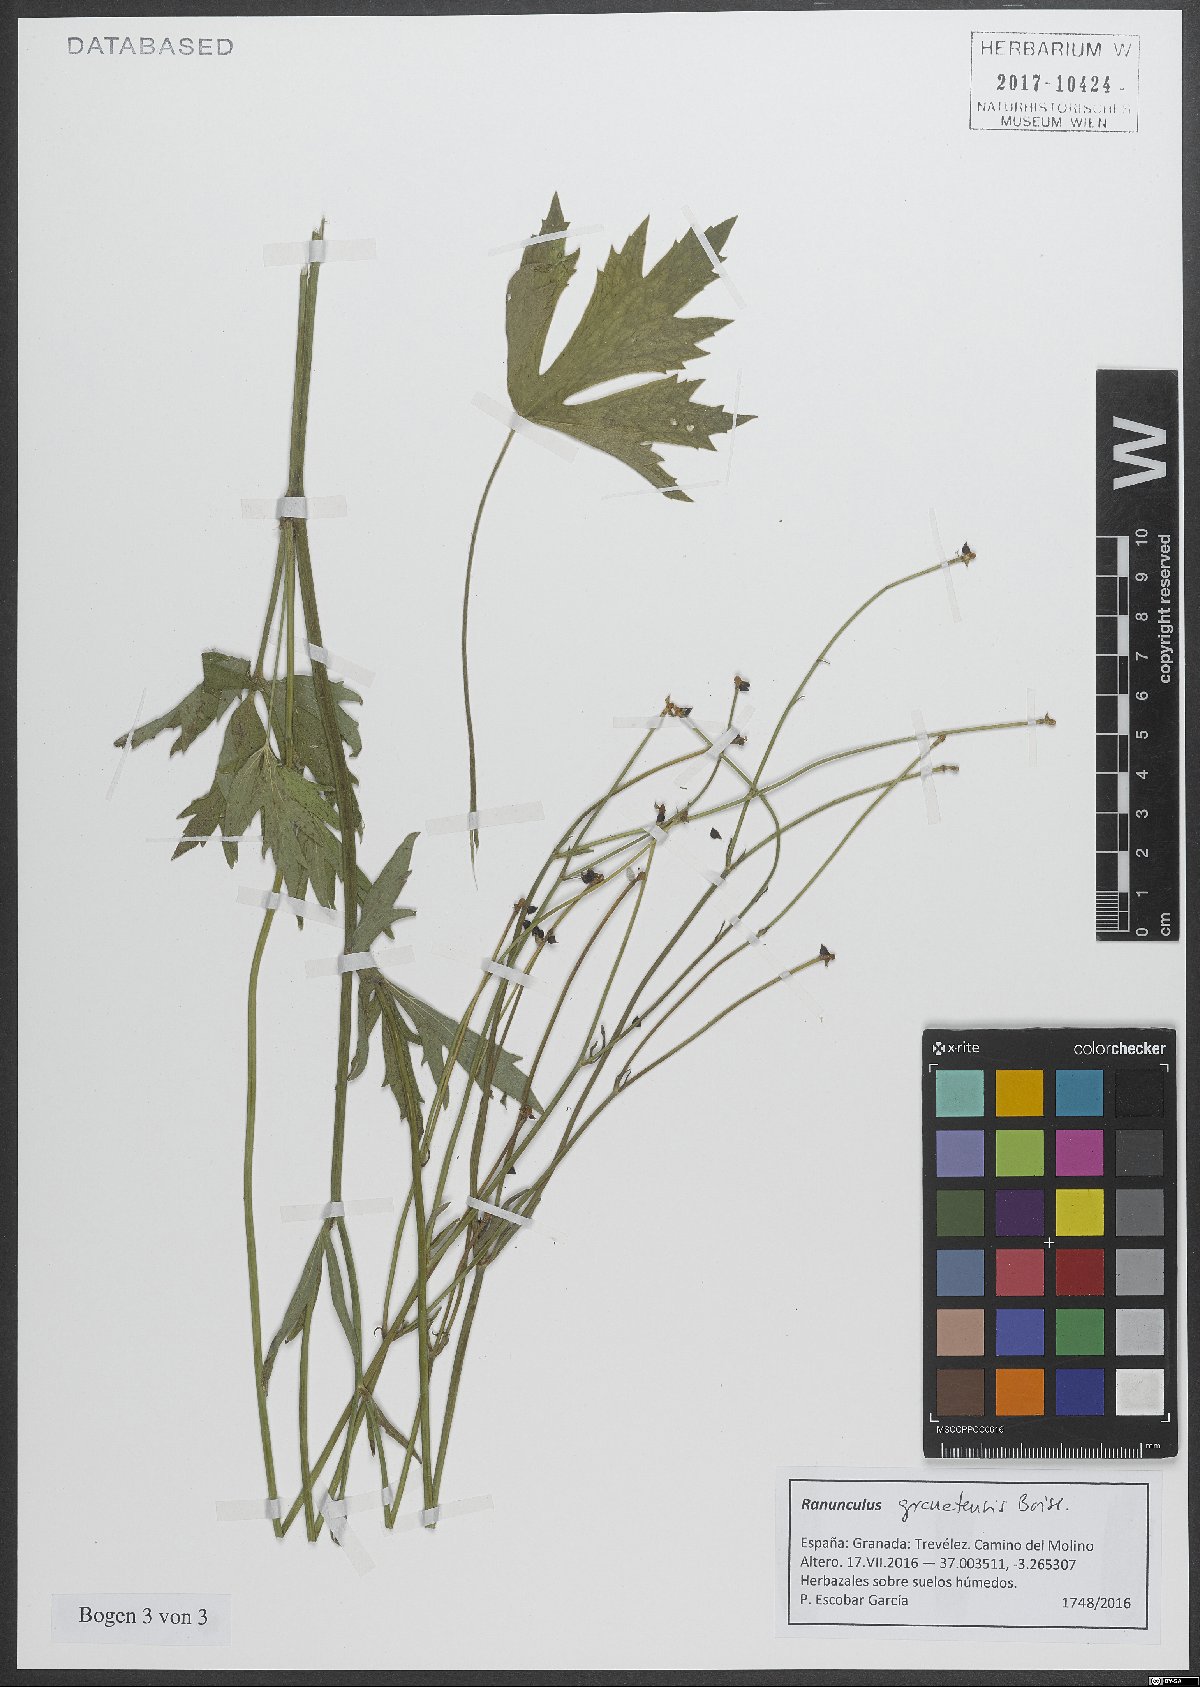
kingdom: Plantae
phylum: Tracheophyta
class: Magnoliopsida
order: Ranunculales
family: Ranunculaceae
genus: Ranunculus
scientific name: Ranunculus granatensis
